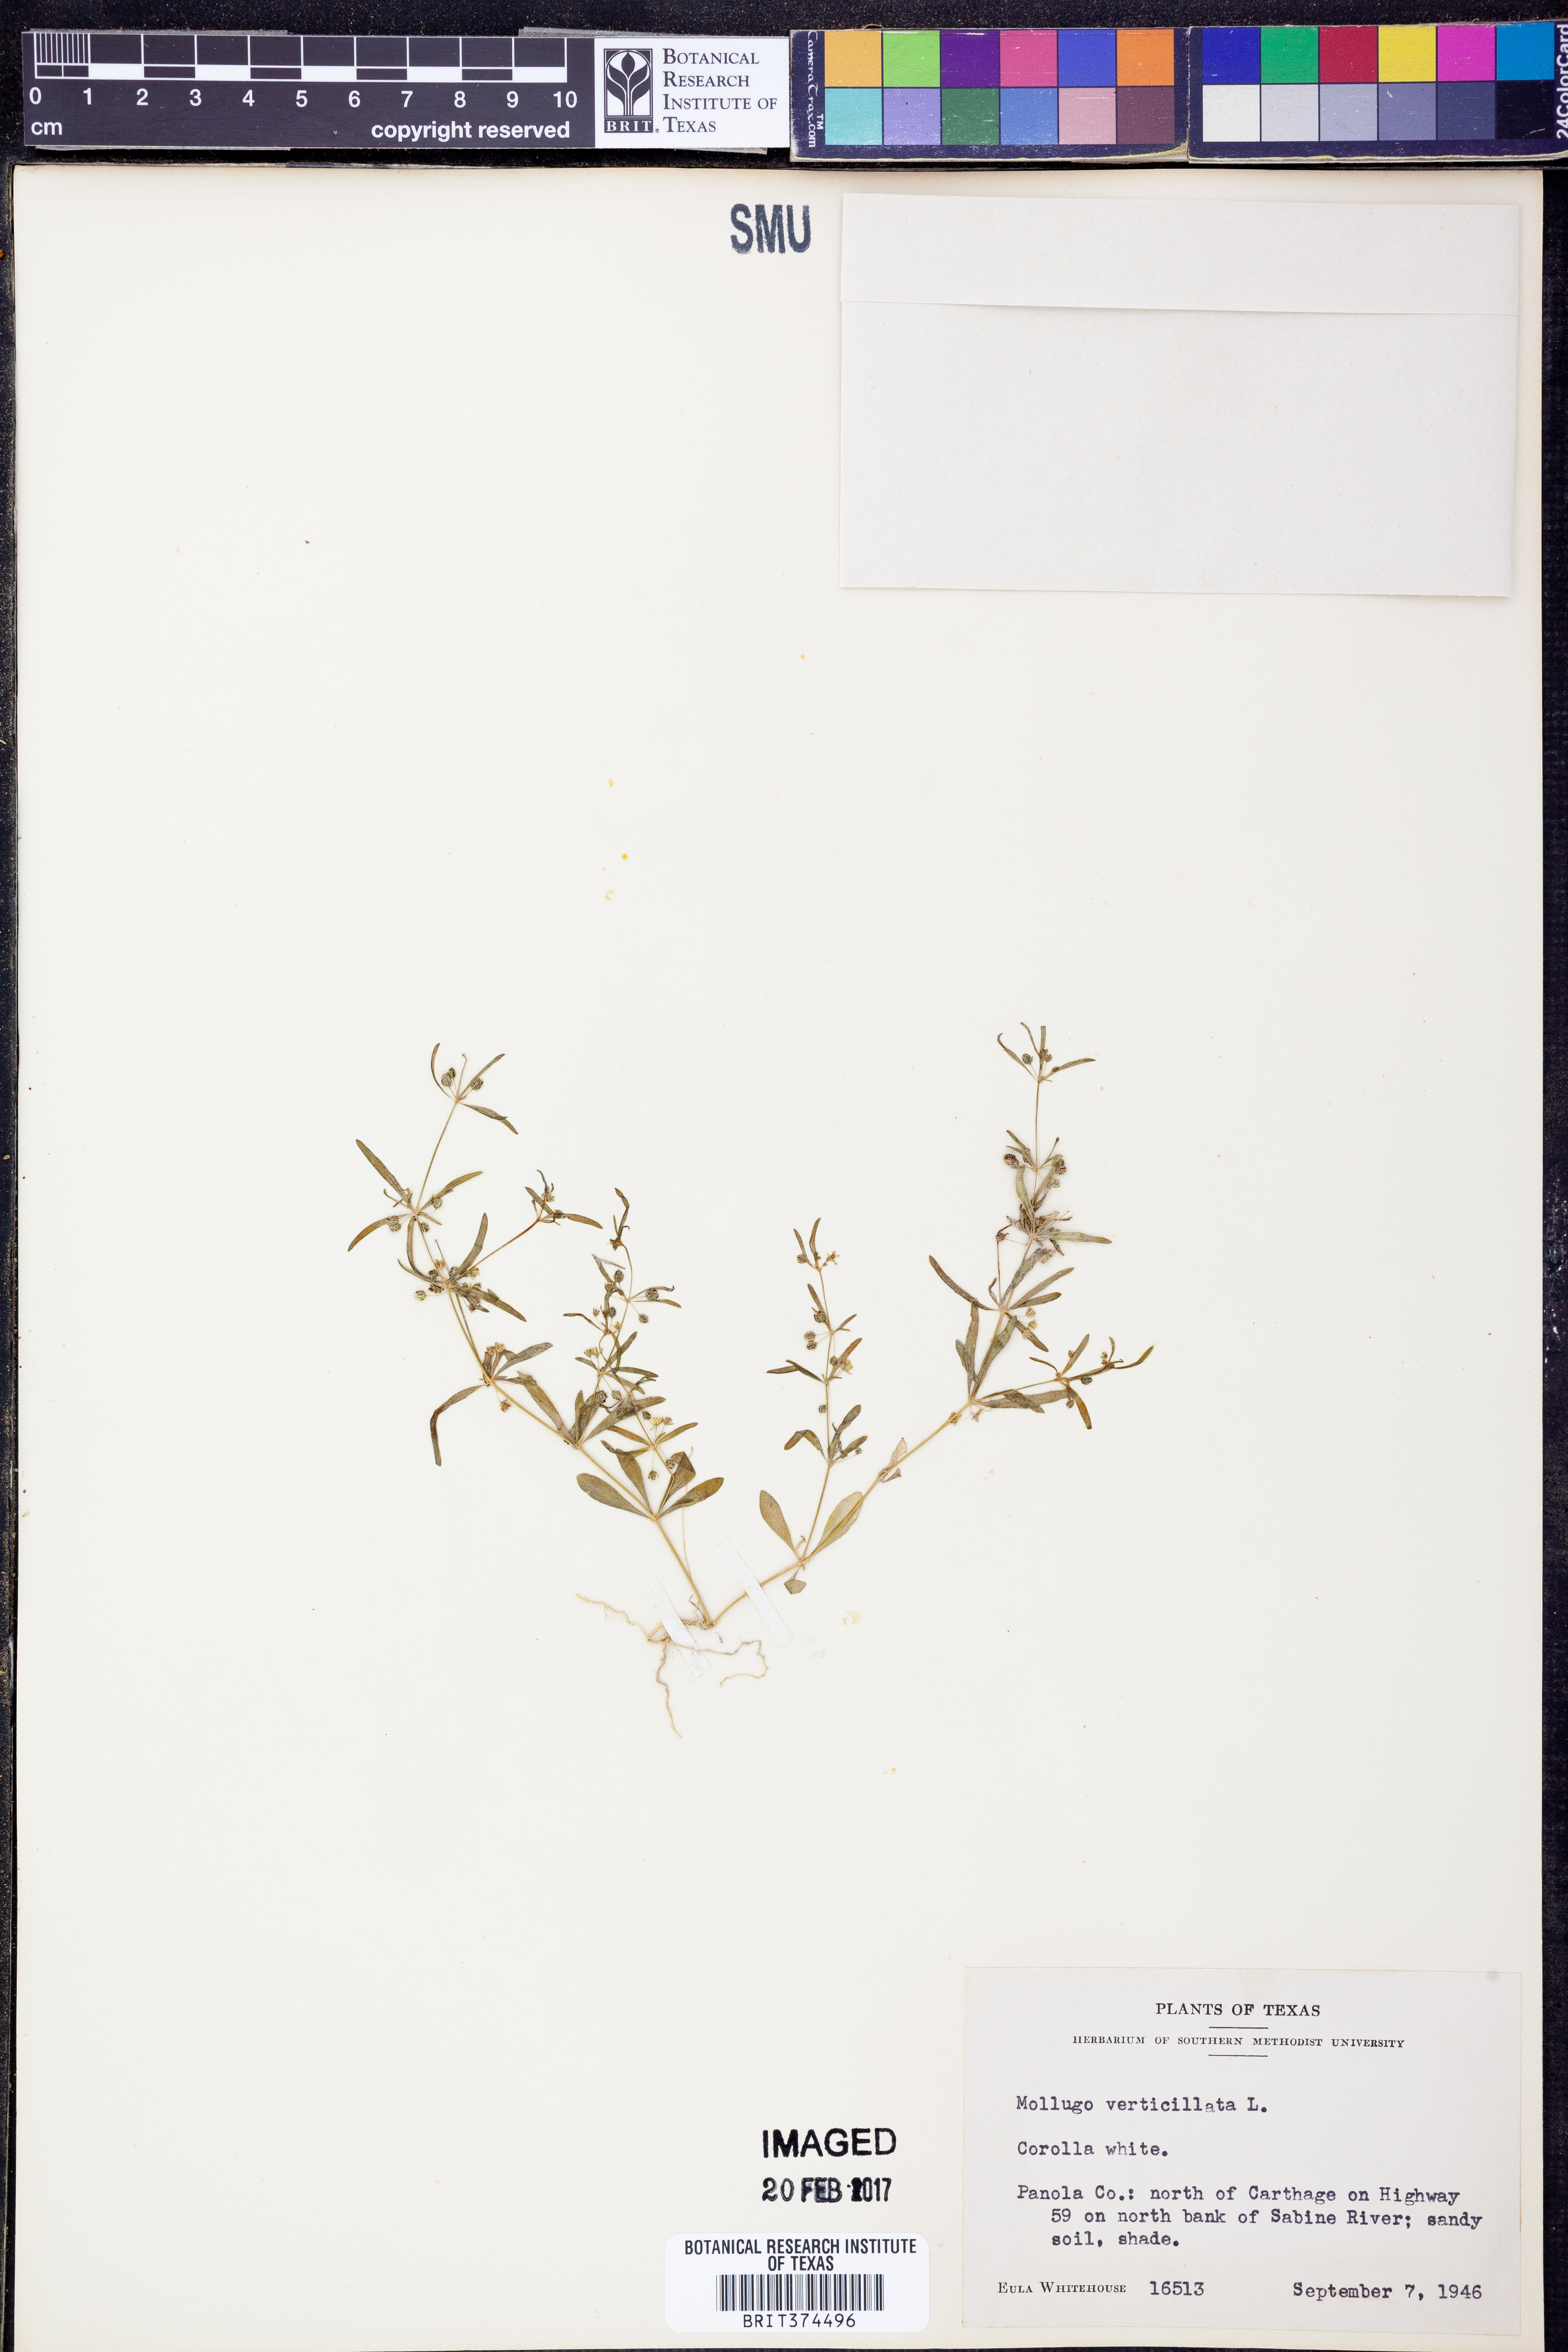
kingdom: Plantae
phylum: Tracheophyta
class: Magnoliopsida
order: Caryophyllales
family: Molluginaceae
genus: Mollugo
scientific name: Mollugo verticillata
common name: Green carpetweed
